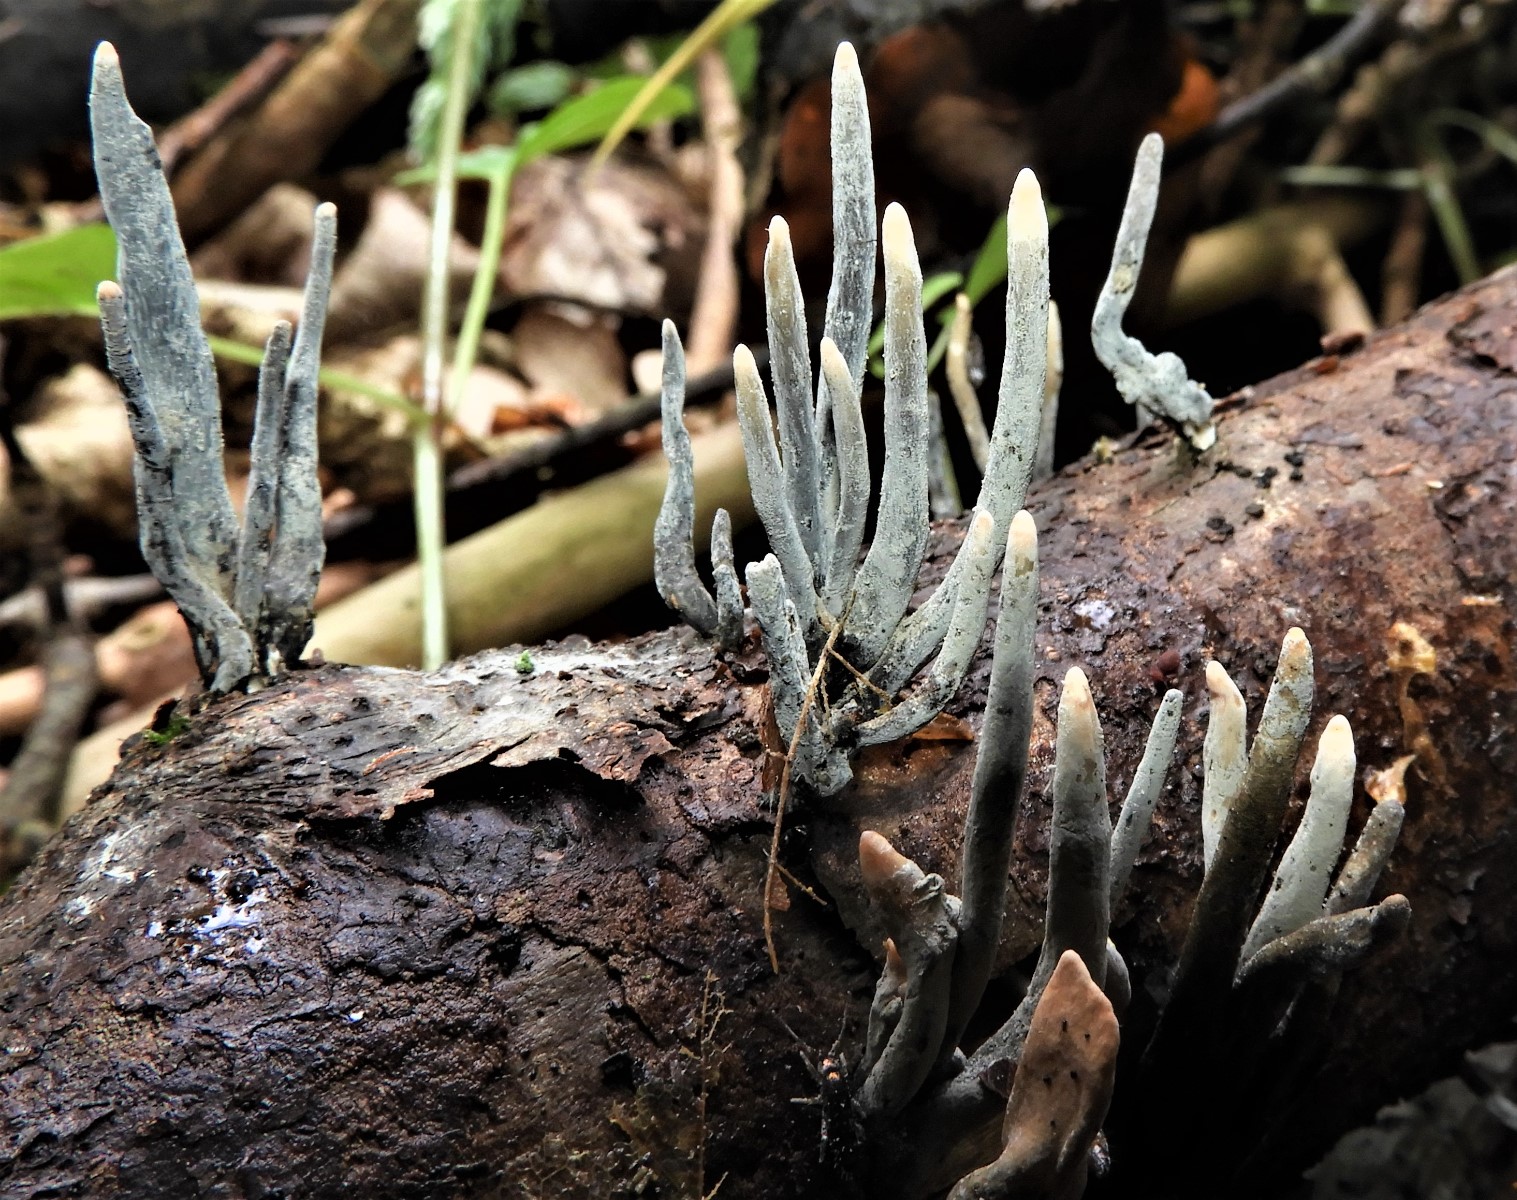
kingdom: Fungi
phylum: Ascomycota
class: Sordariomycetes
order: Xylariales
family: Xylariaceae
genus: Xylaria
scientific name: Xylaria hypoxylon
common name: grenet stødsvamp
